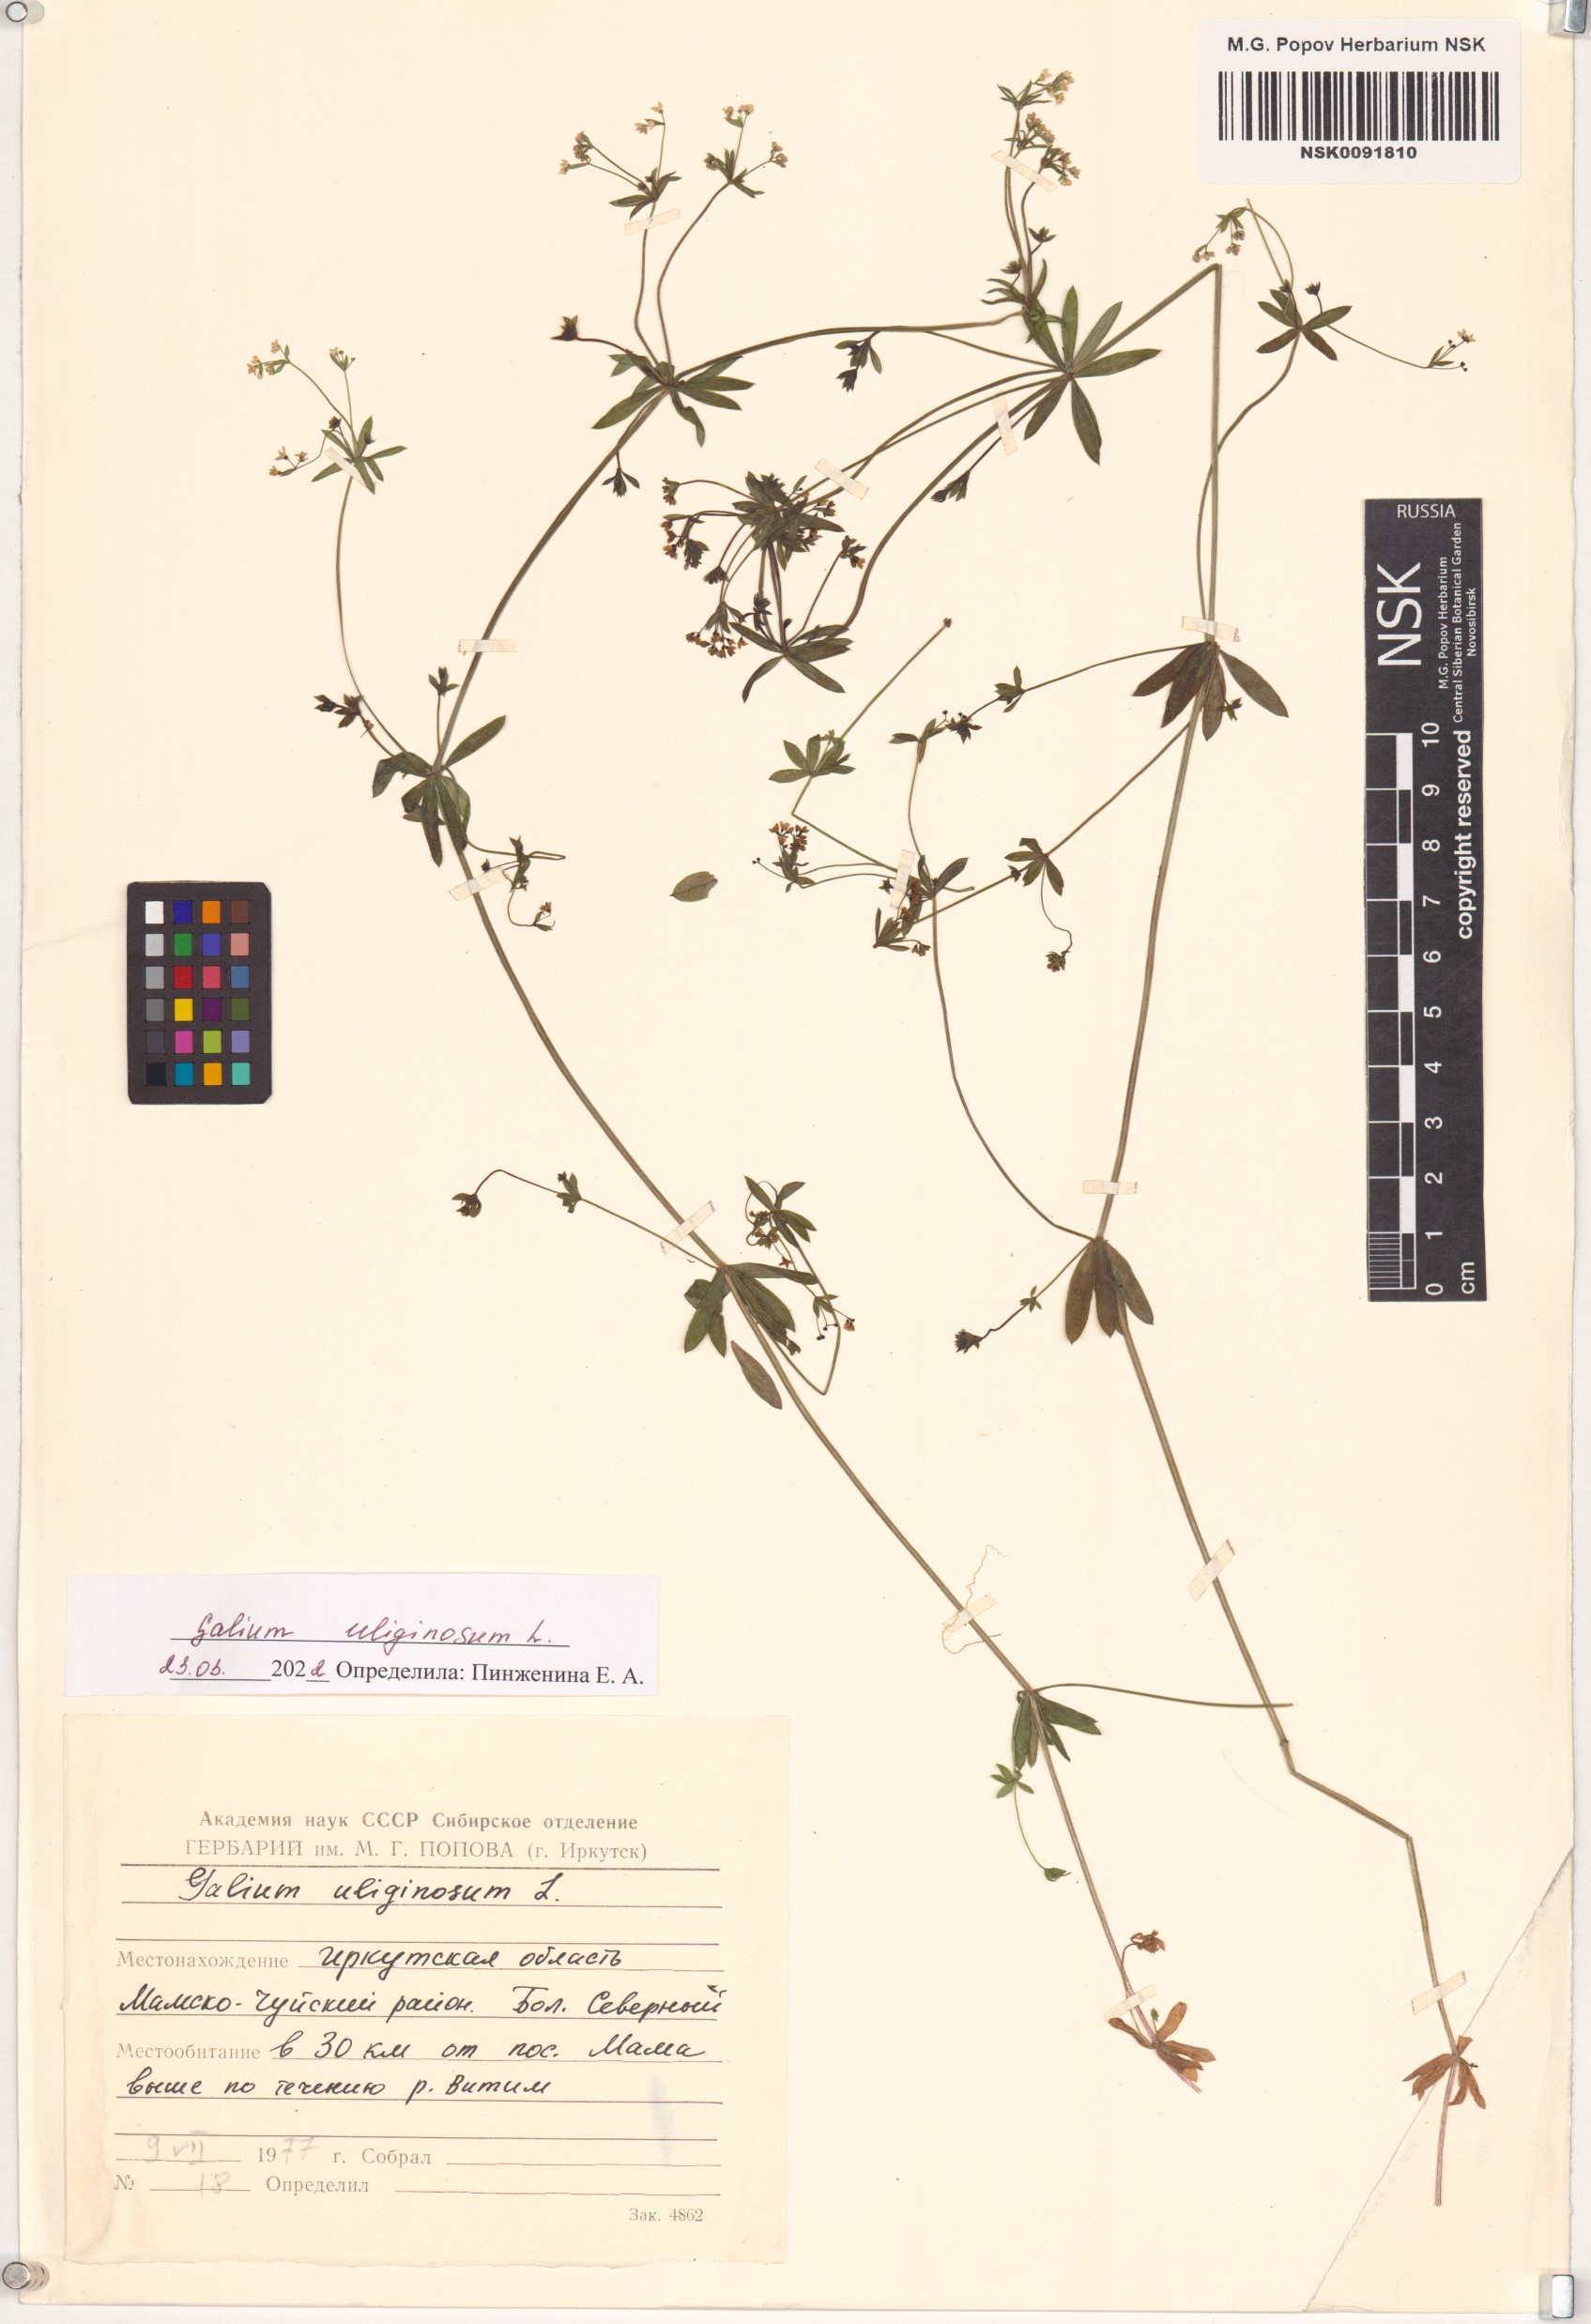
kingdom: Plantae
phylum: Tracheophyta
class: Magnoliopsida
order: Gentianales
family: Rubiaceae
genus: Galium
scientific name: Galium uliginosum
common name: Fen bedstraw
